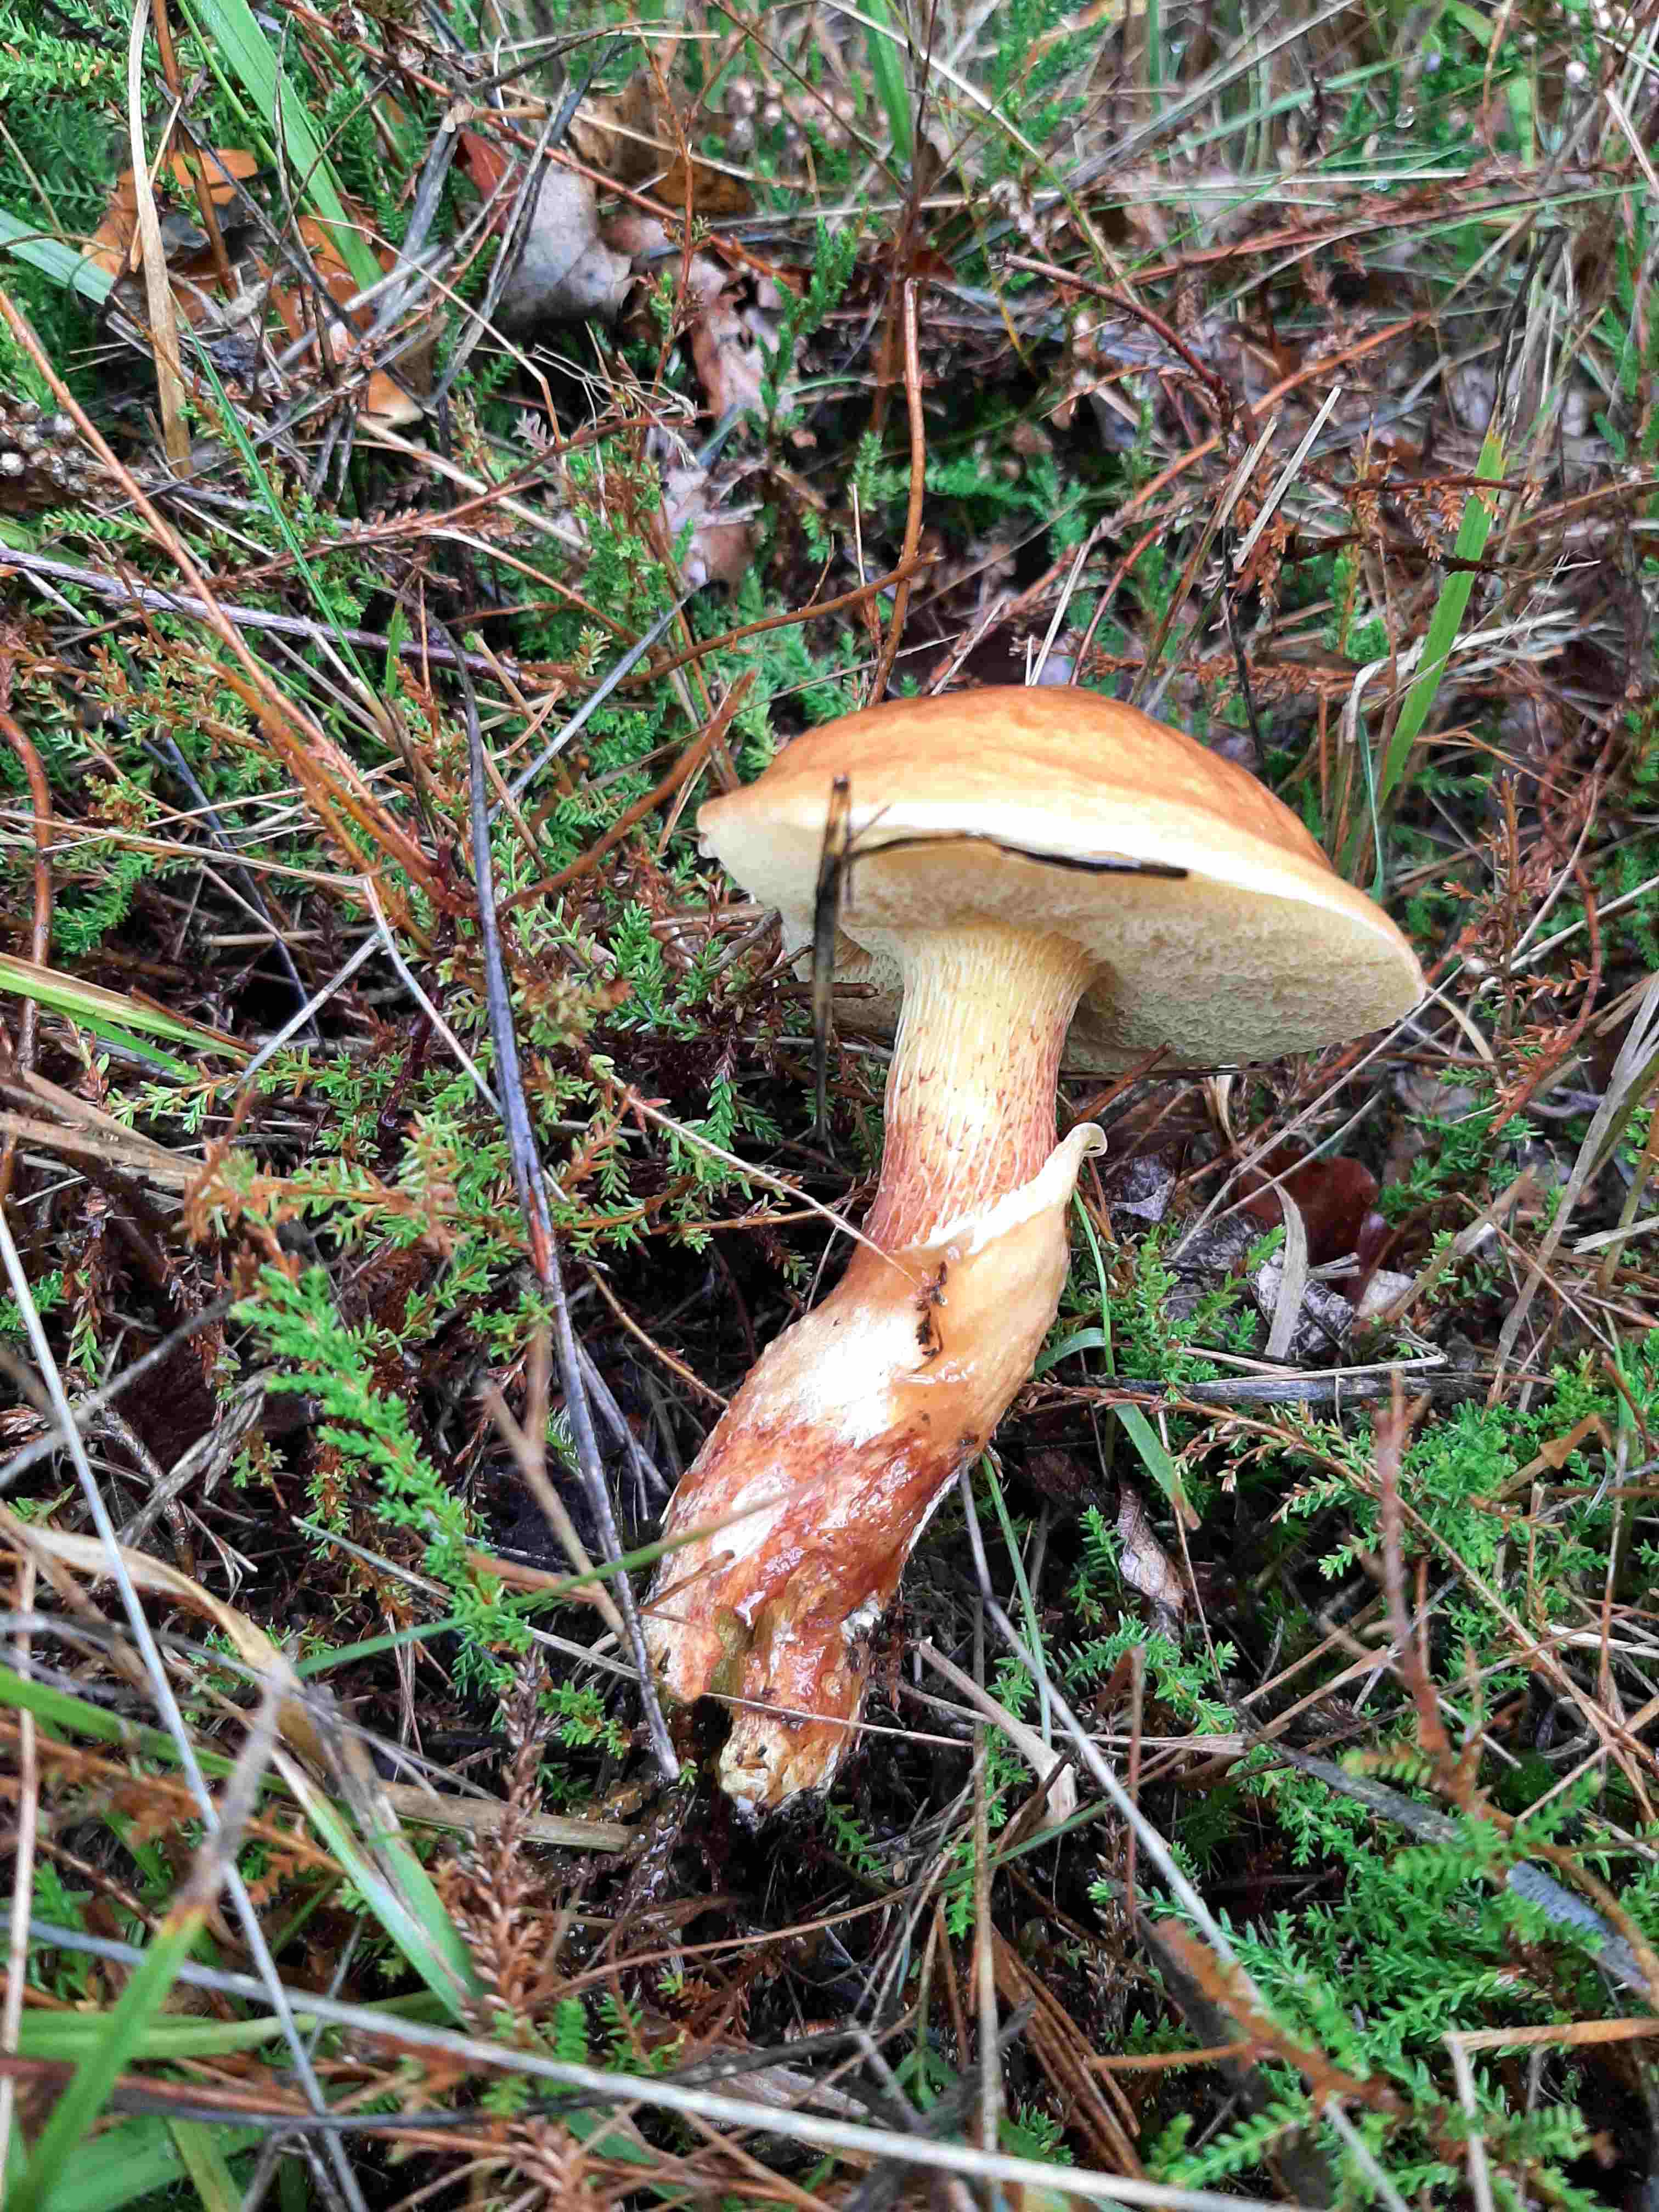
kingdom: Fungi
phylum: Basidiomycota
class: Agaricomycetes
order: Boletales
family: Suillaceae
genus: Suillus
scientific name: Suillus grevillei
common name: lærke-slimrørhat
